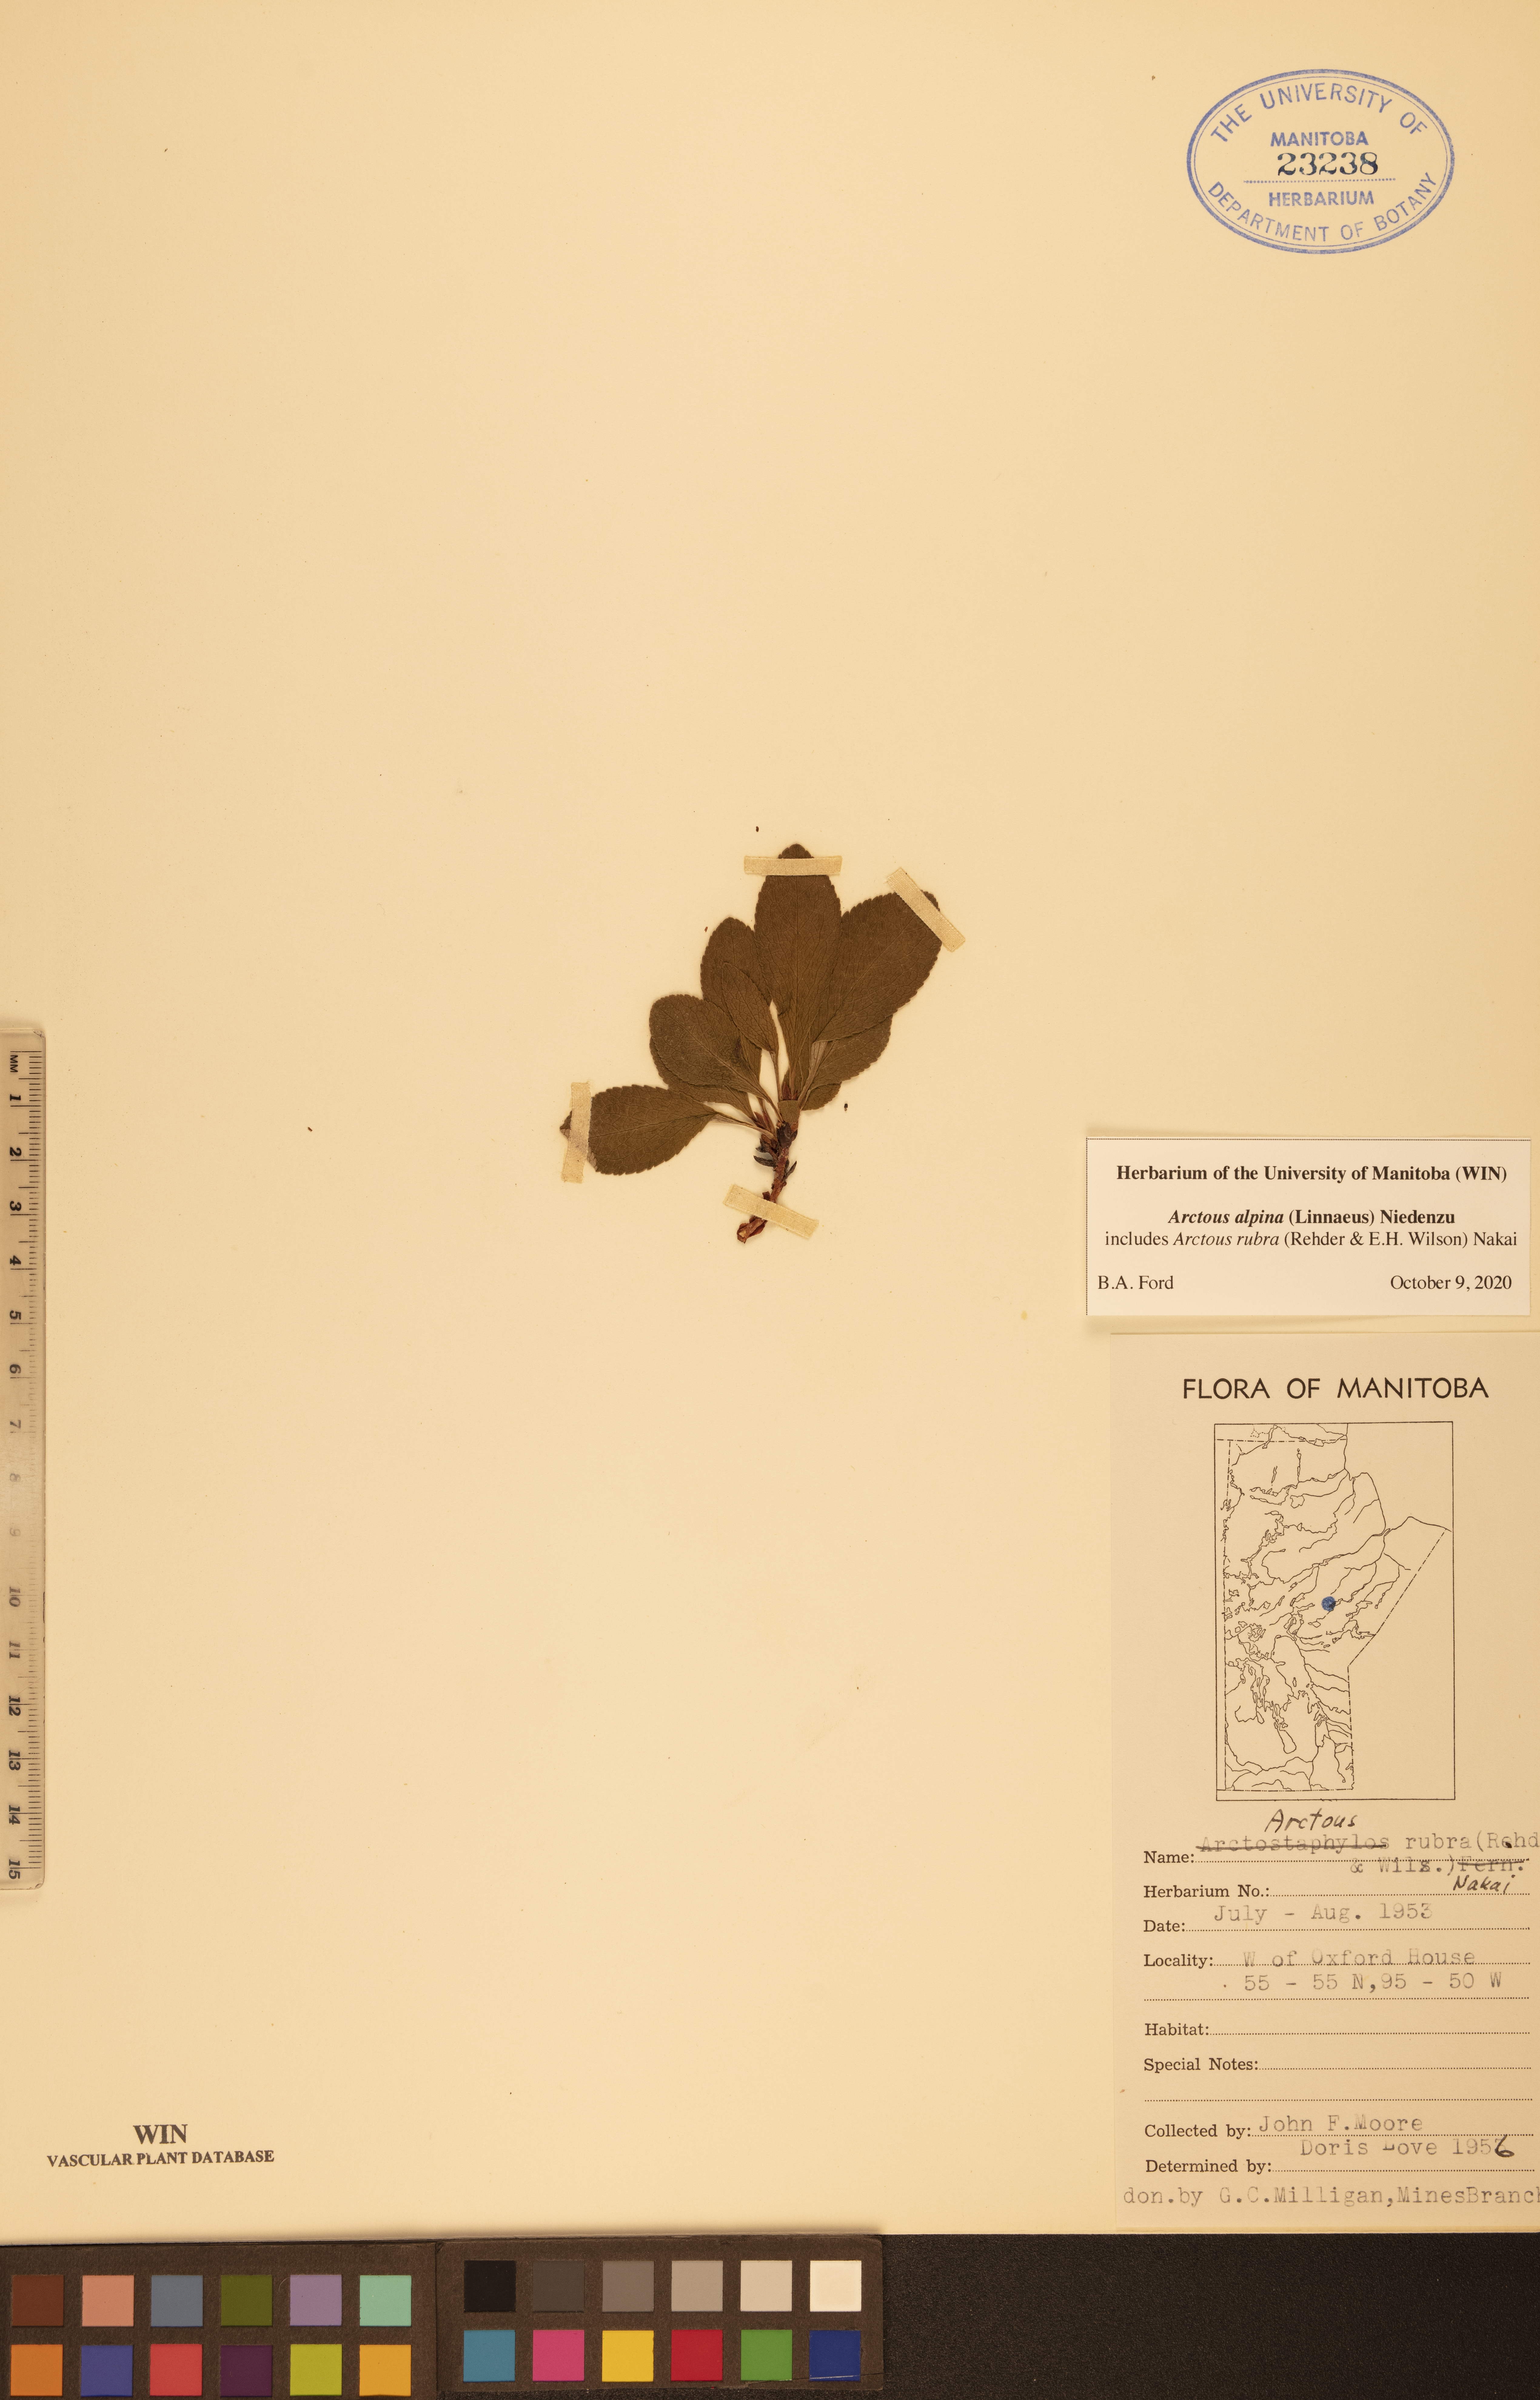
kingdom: Plantae
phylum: Tracheophyta
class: Magnoliopsida
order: Ericales
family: Ericaceae
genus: Arctostaphylos
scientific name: Arctostaphylos alpinus
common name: Alpine bearberry
